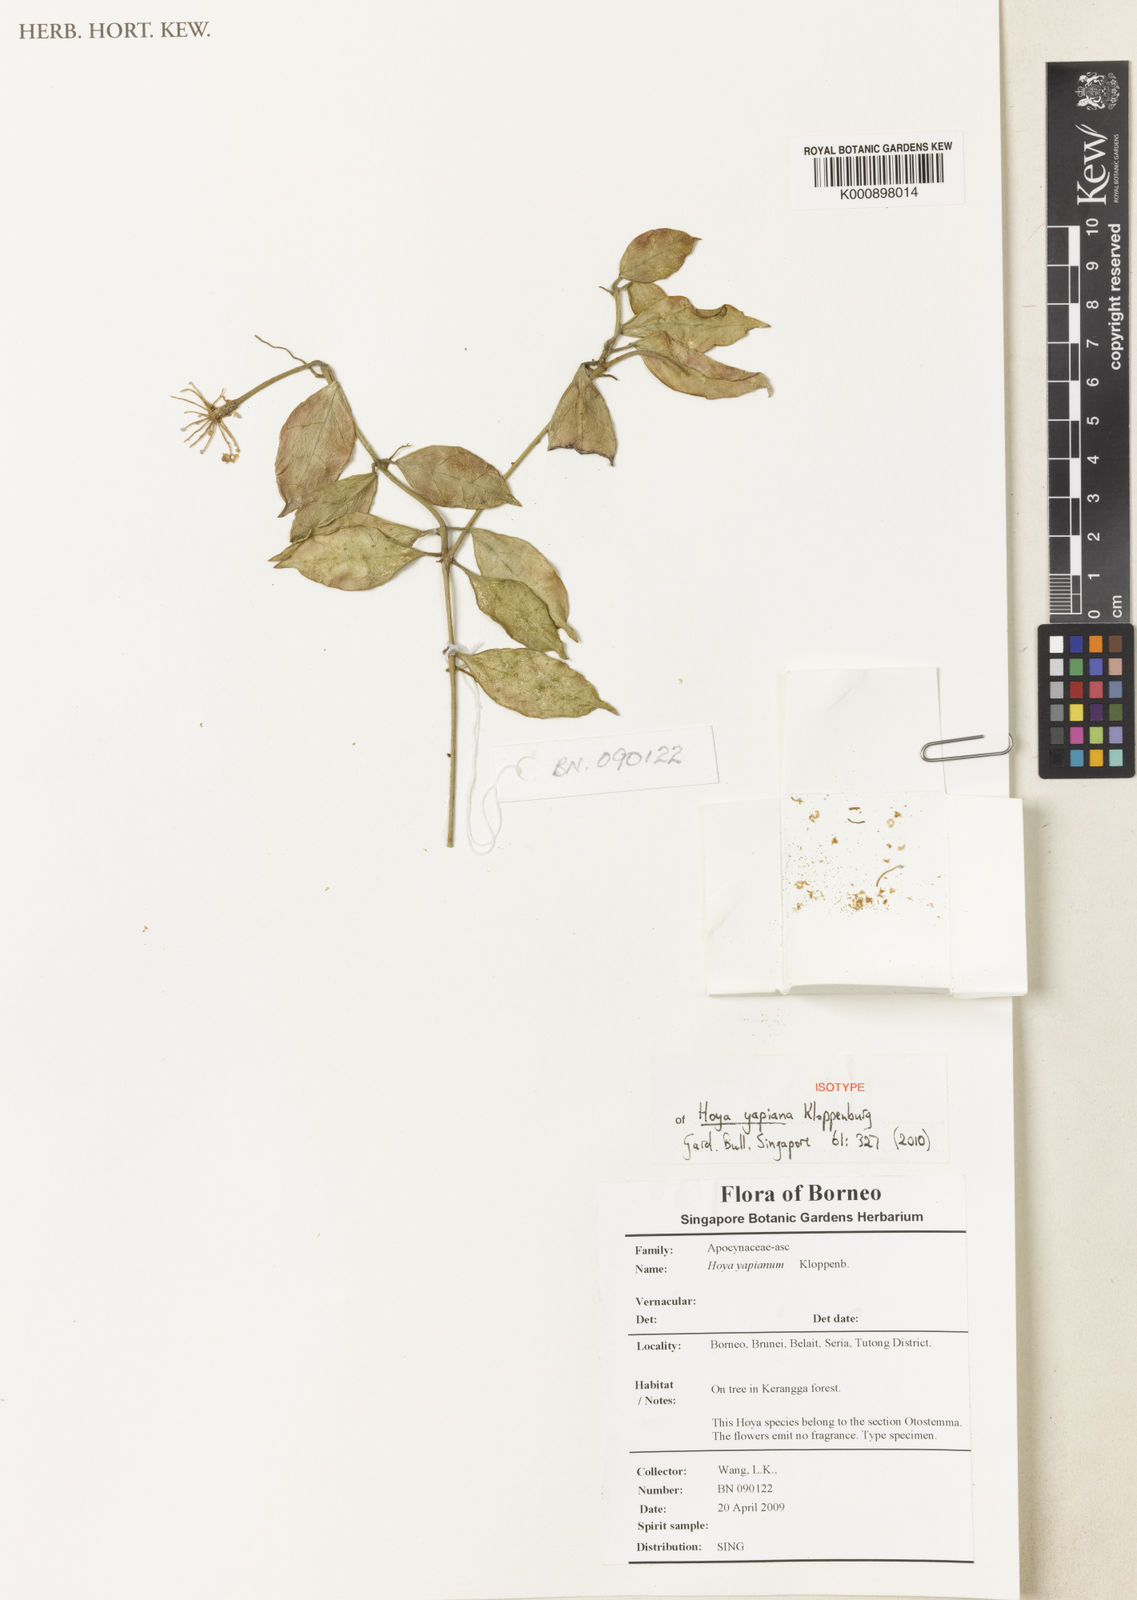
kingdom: Plantae
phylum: Tracheophyta
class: Magnoliopsida
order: Gentianales
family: Apocynaceae
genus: Hoya
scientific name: Hoya
